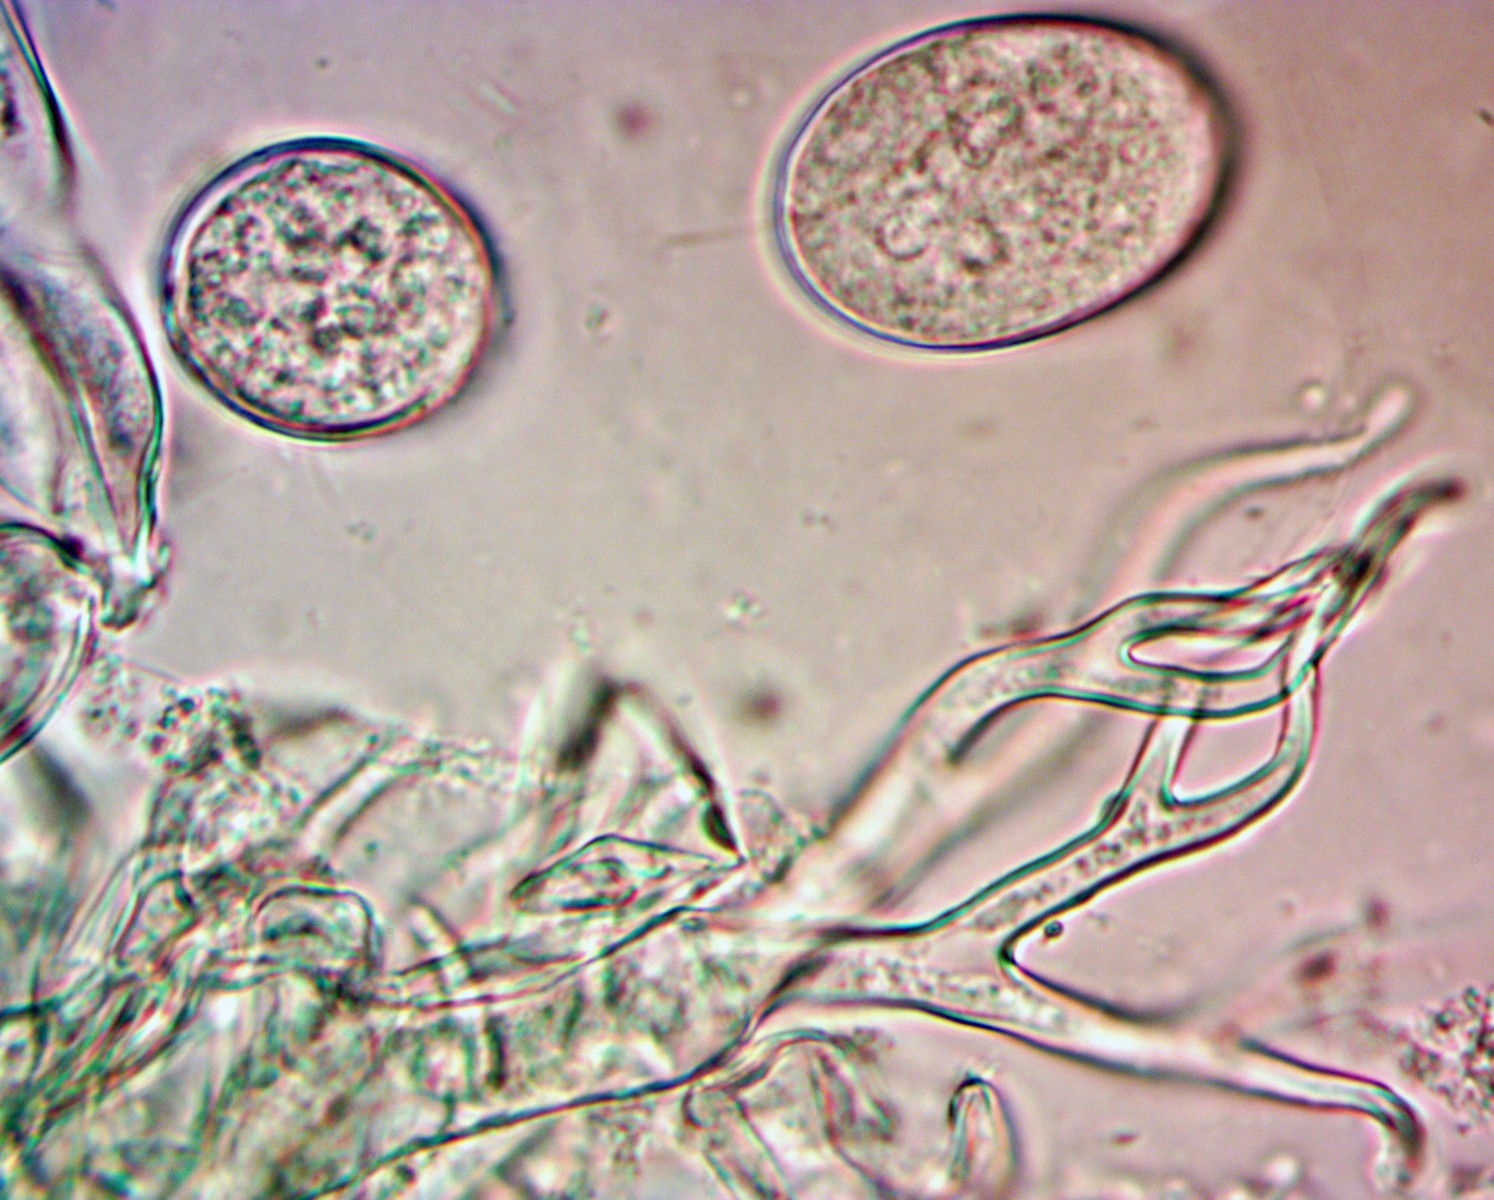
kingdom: Chromista
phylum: Oomycota
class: Peronosporea
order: Peronosporales
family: Peronosporaceae
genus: Hyaloperonospora
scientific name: Hyaloperonospora thlaspeos-arvensis
